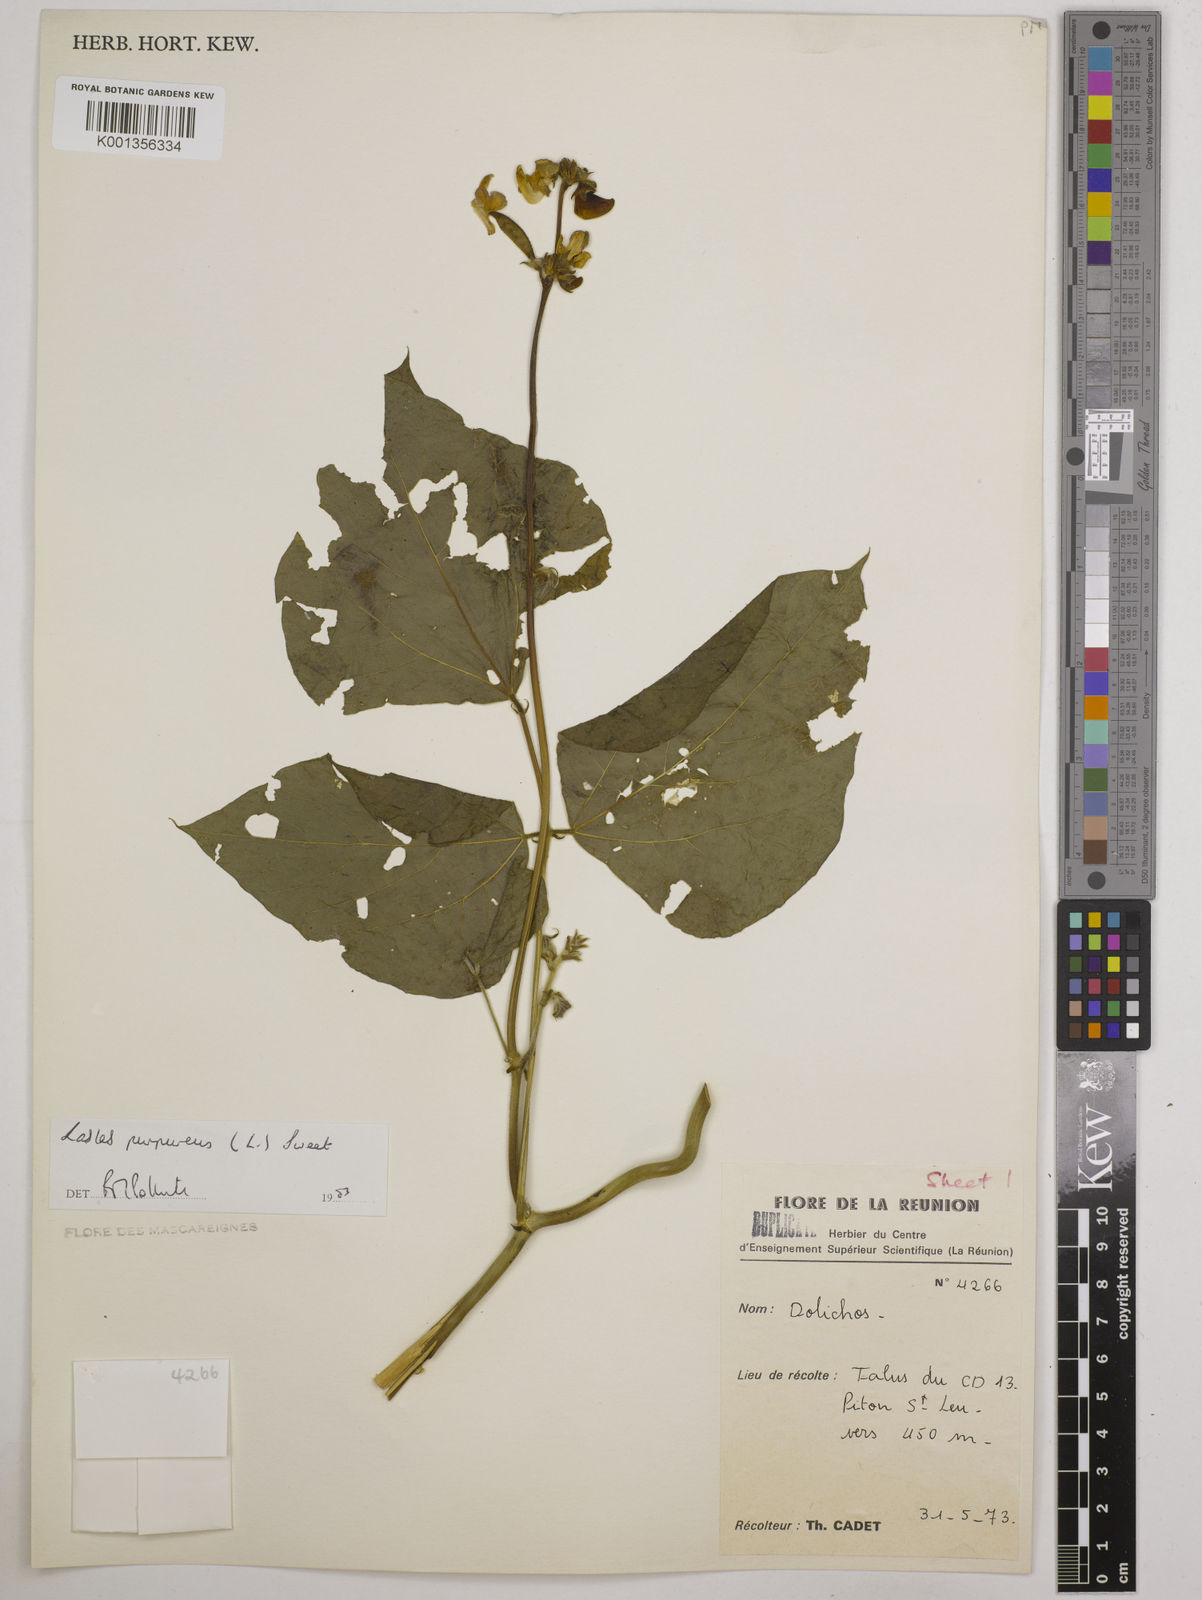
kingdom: Plantae
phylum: Tracheophyta
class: Magnoliopsida
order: Fabales
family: Fabaceae
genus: Lablab
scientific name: Lablab purpureus
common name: Lablab-bean
